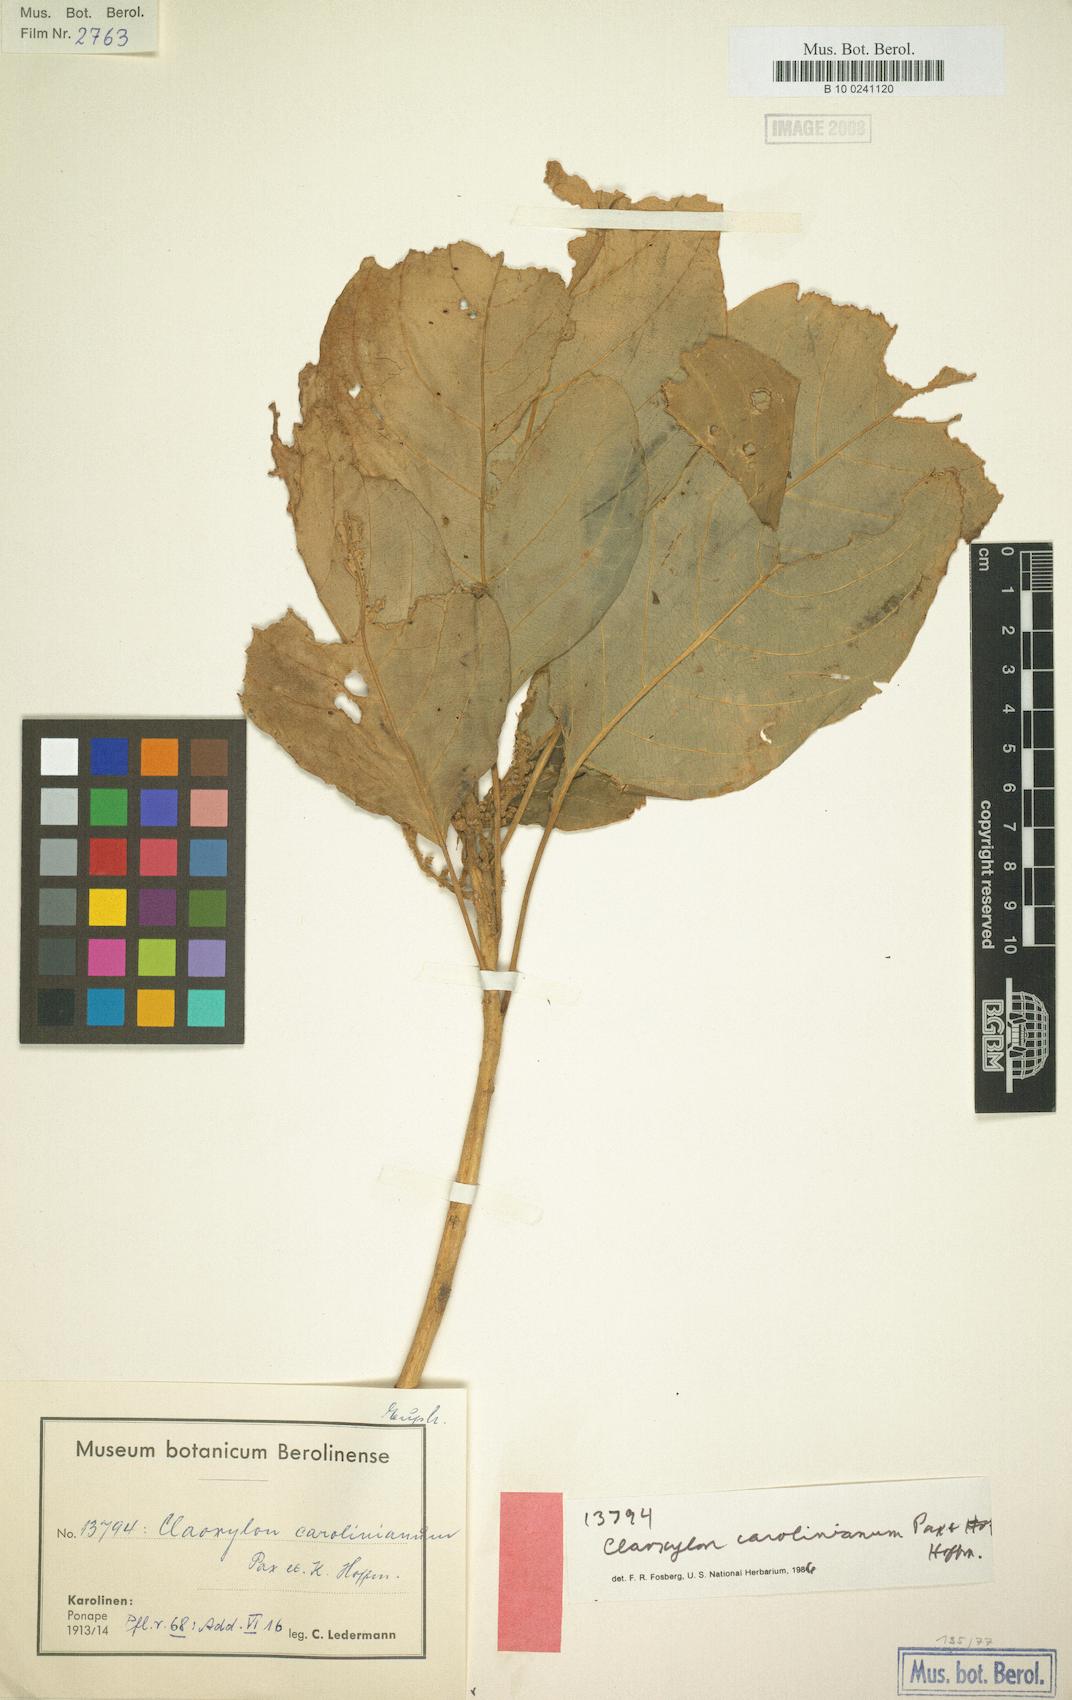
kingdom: Plantae
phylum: Tracheophyta
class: Magnoliopsida
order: Malpighiales
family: Euphorbiaceae
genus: Claoxylon
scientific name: Claoxylon carolinianum
